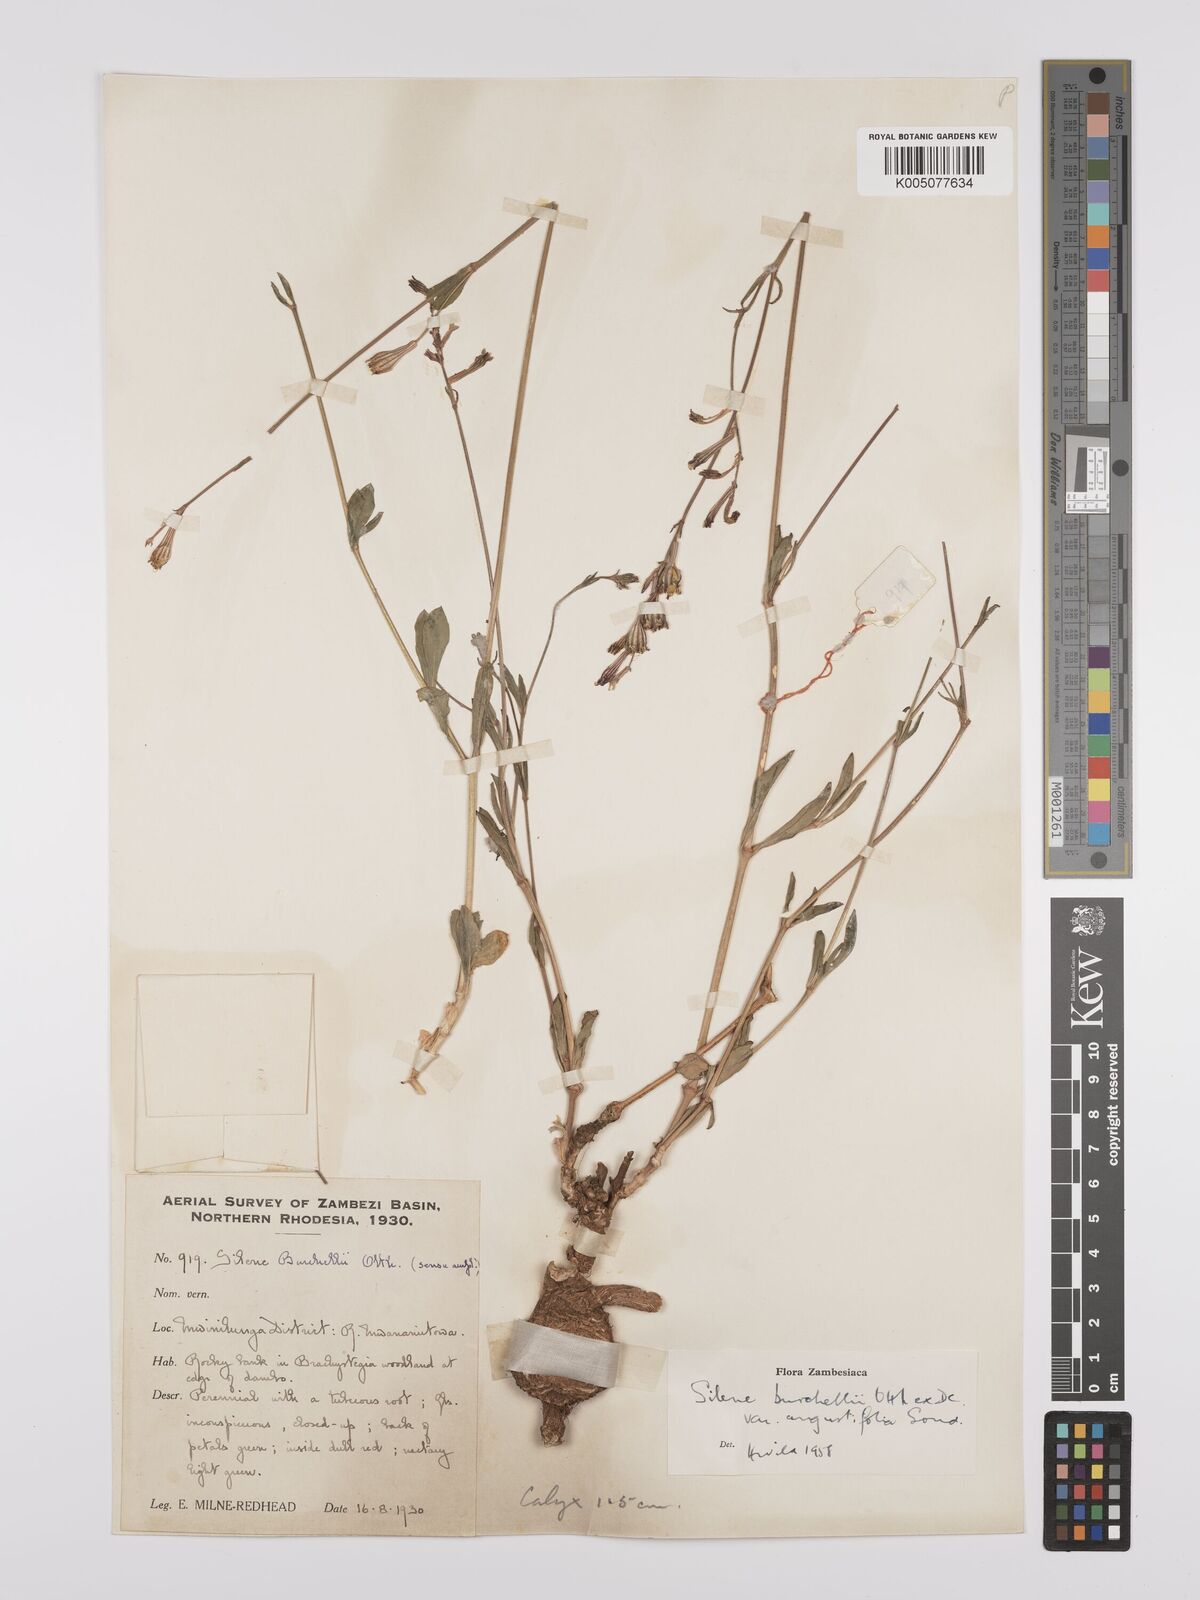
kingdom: Plantae
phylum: Tracheophyta
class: Magnoliopsida
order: Caryophyllales
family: Caryophyllaceae
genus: Silene
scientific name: Silene burchellii
